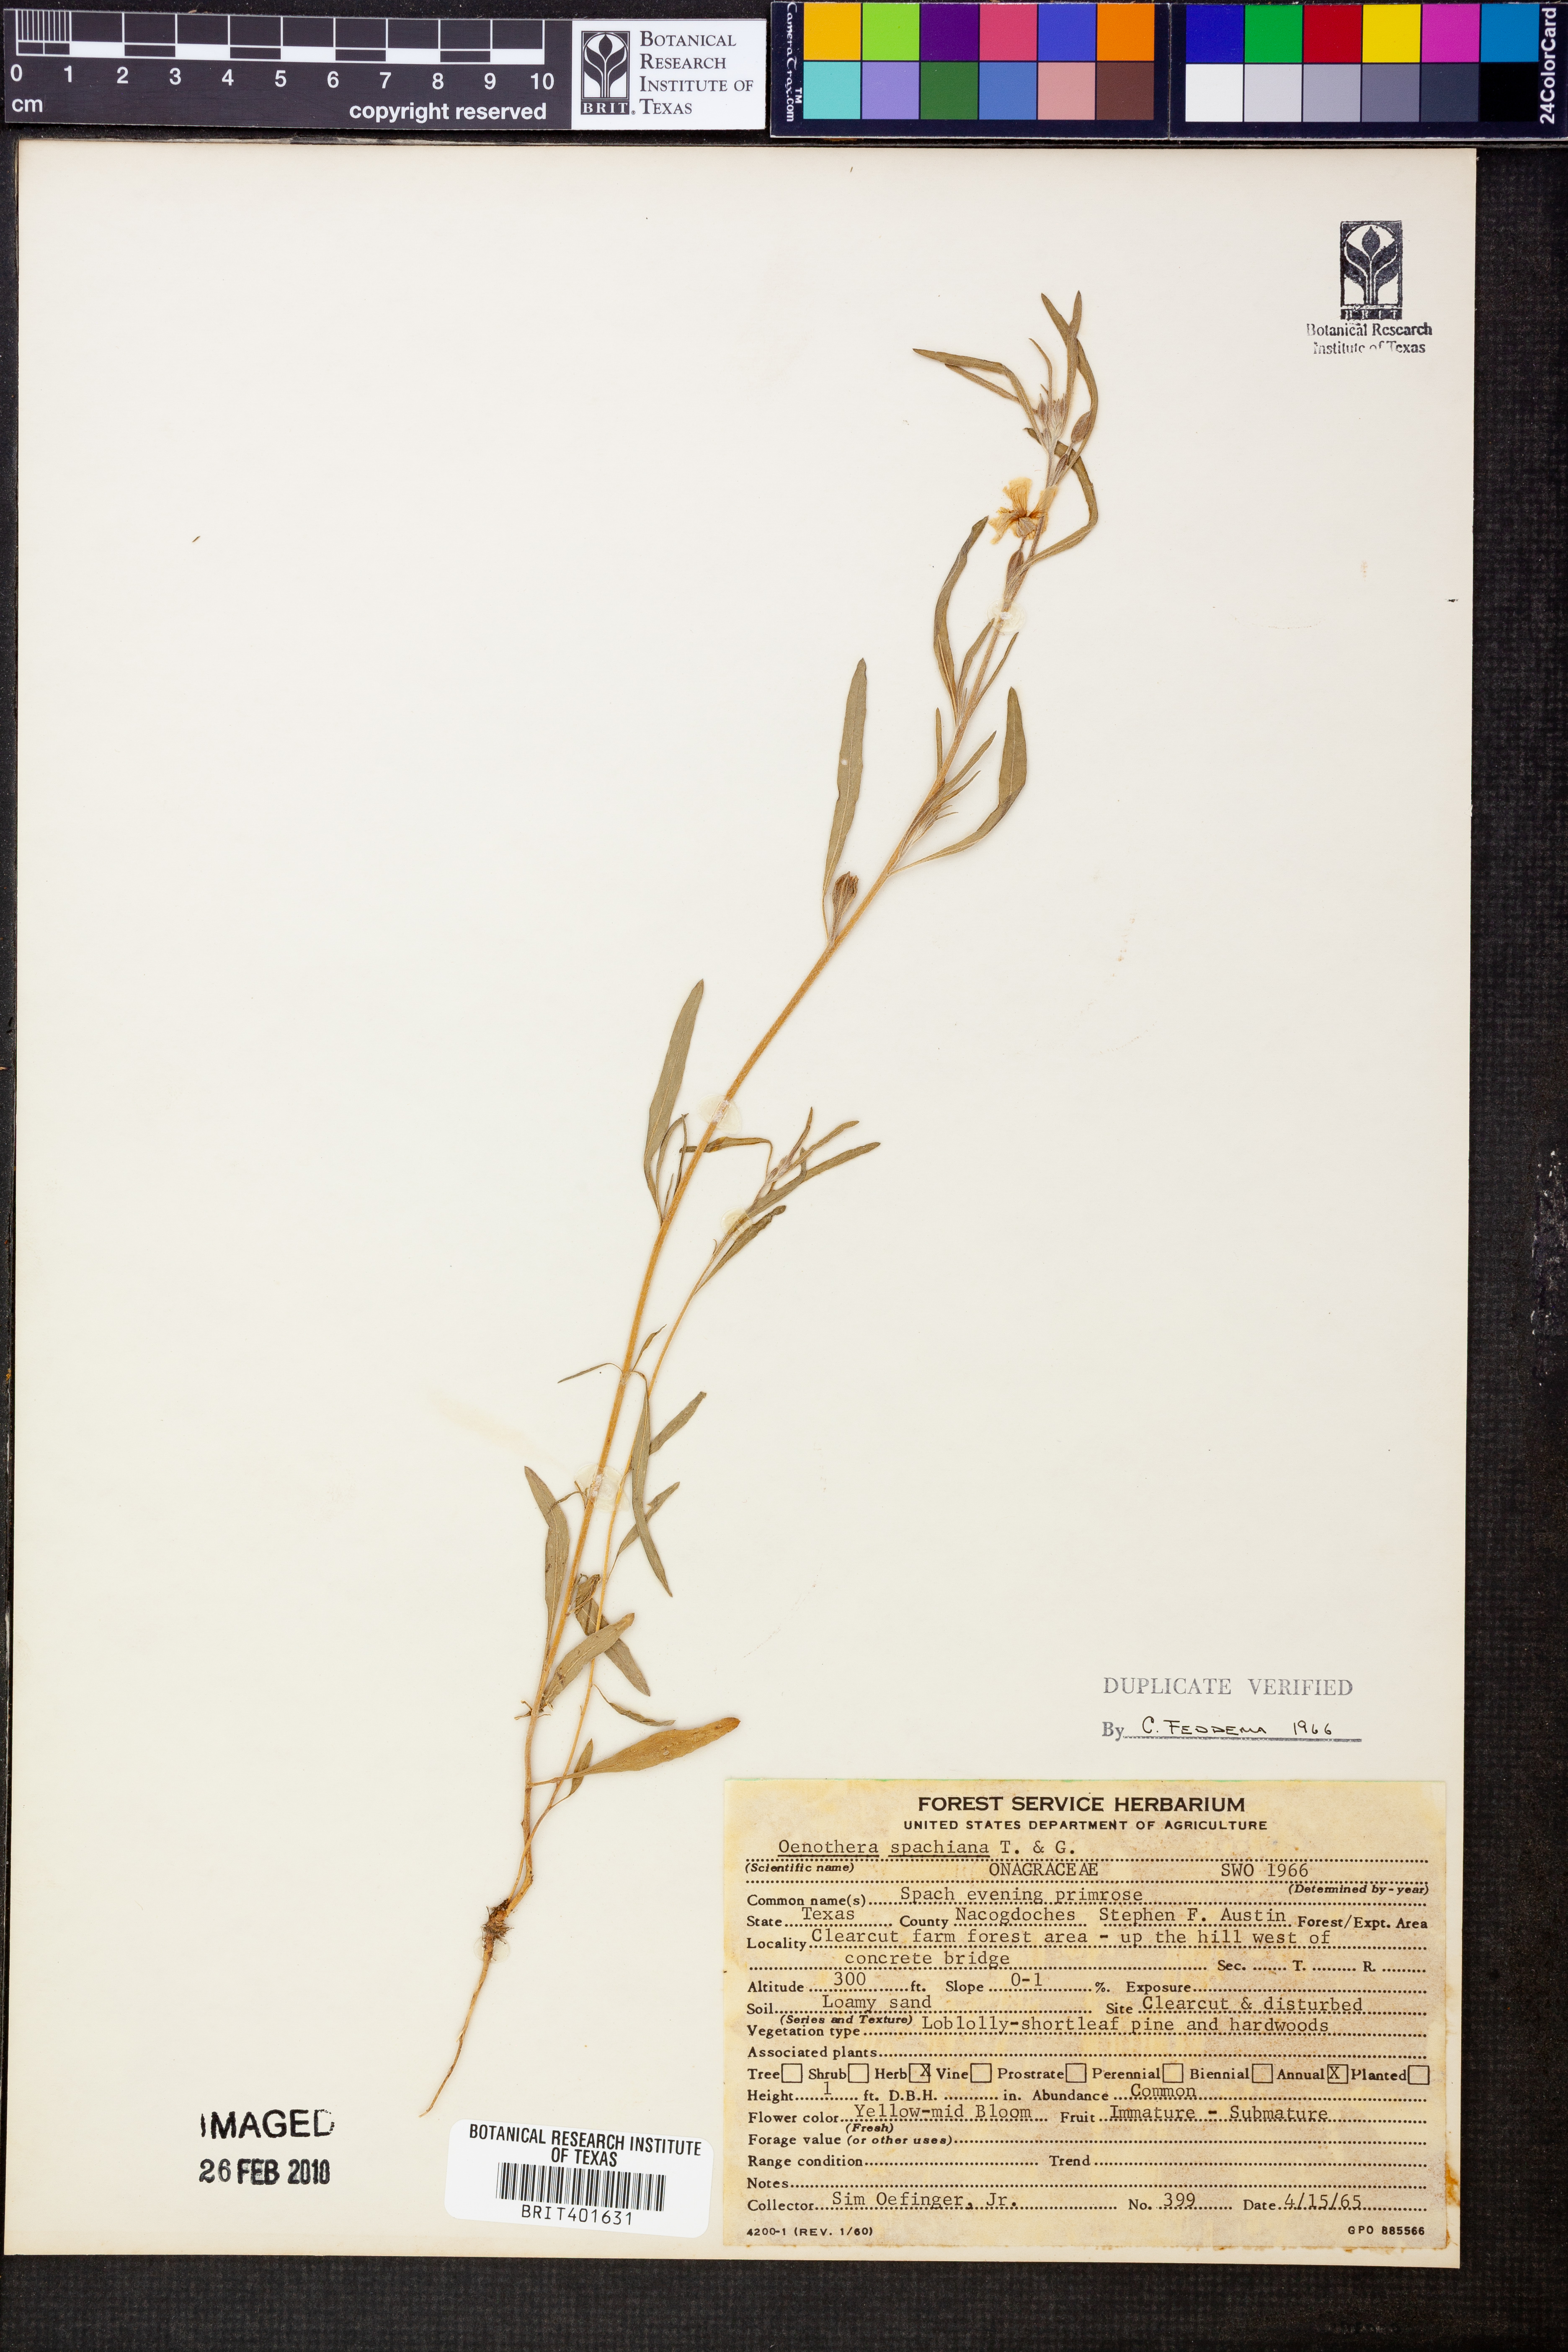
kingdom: Plantae
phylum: Tracheophyta
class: Magnoliopsida
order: Myrtales
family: Onagraceae
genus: Oenothera
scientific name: Oenothera spachiana
